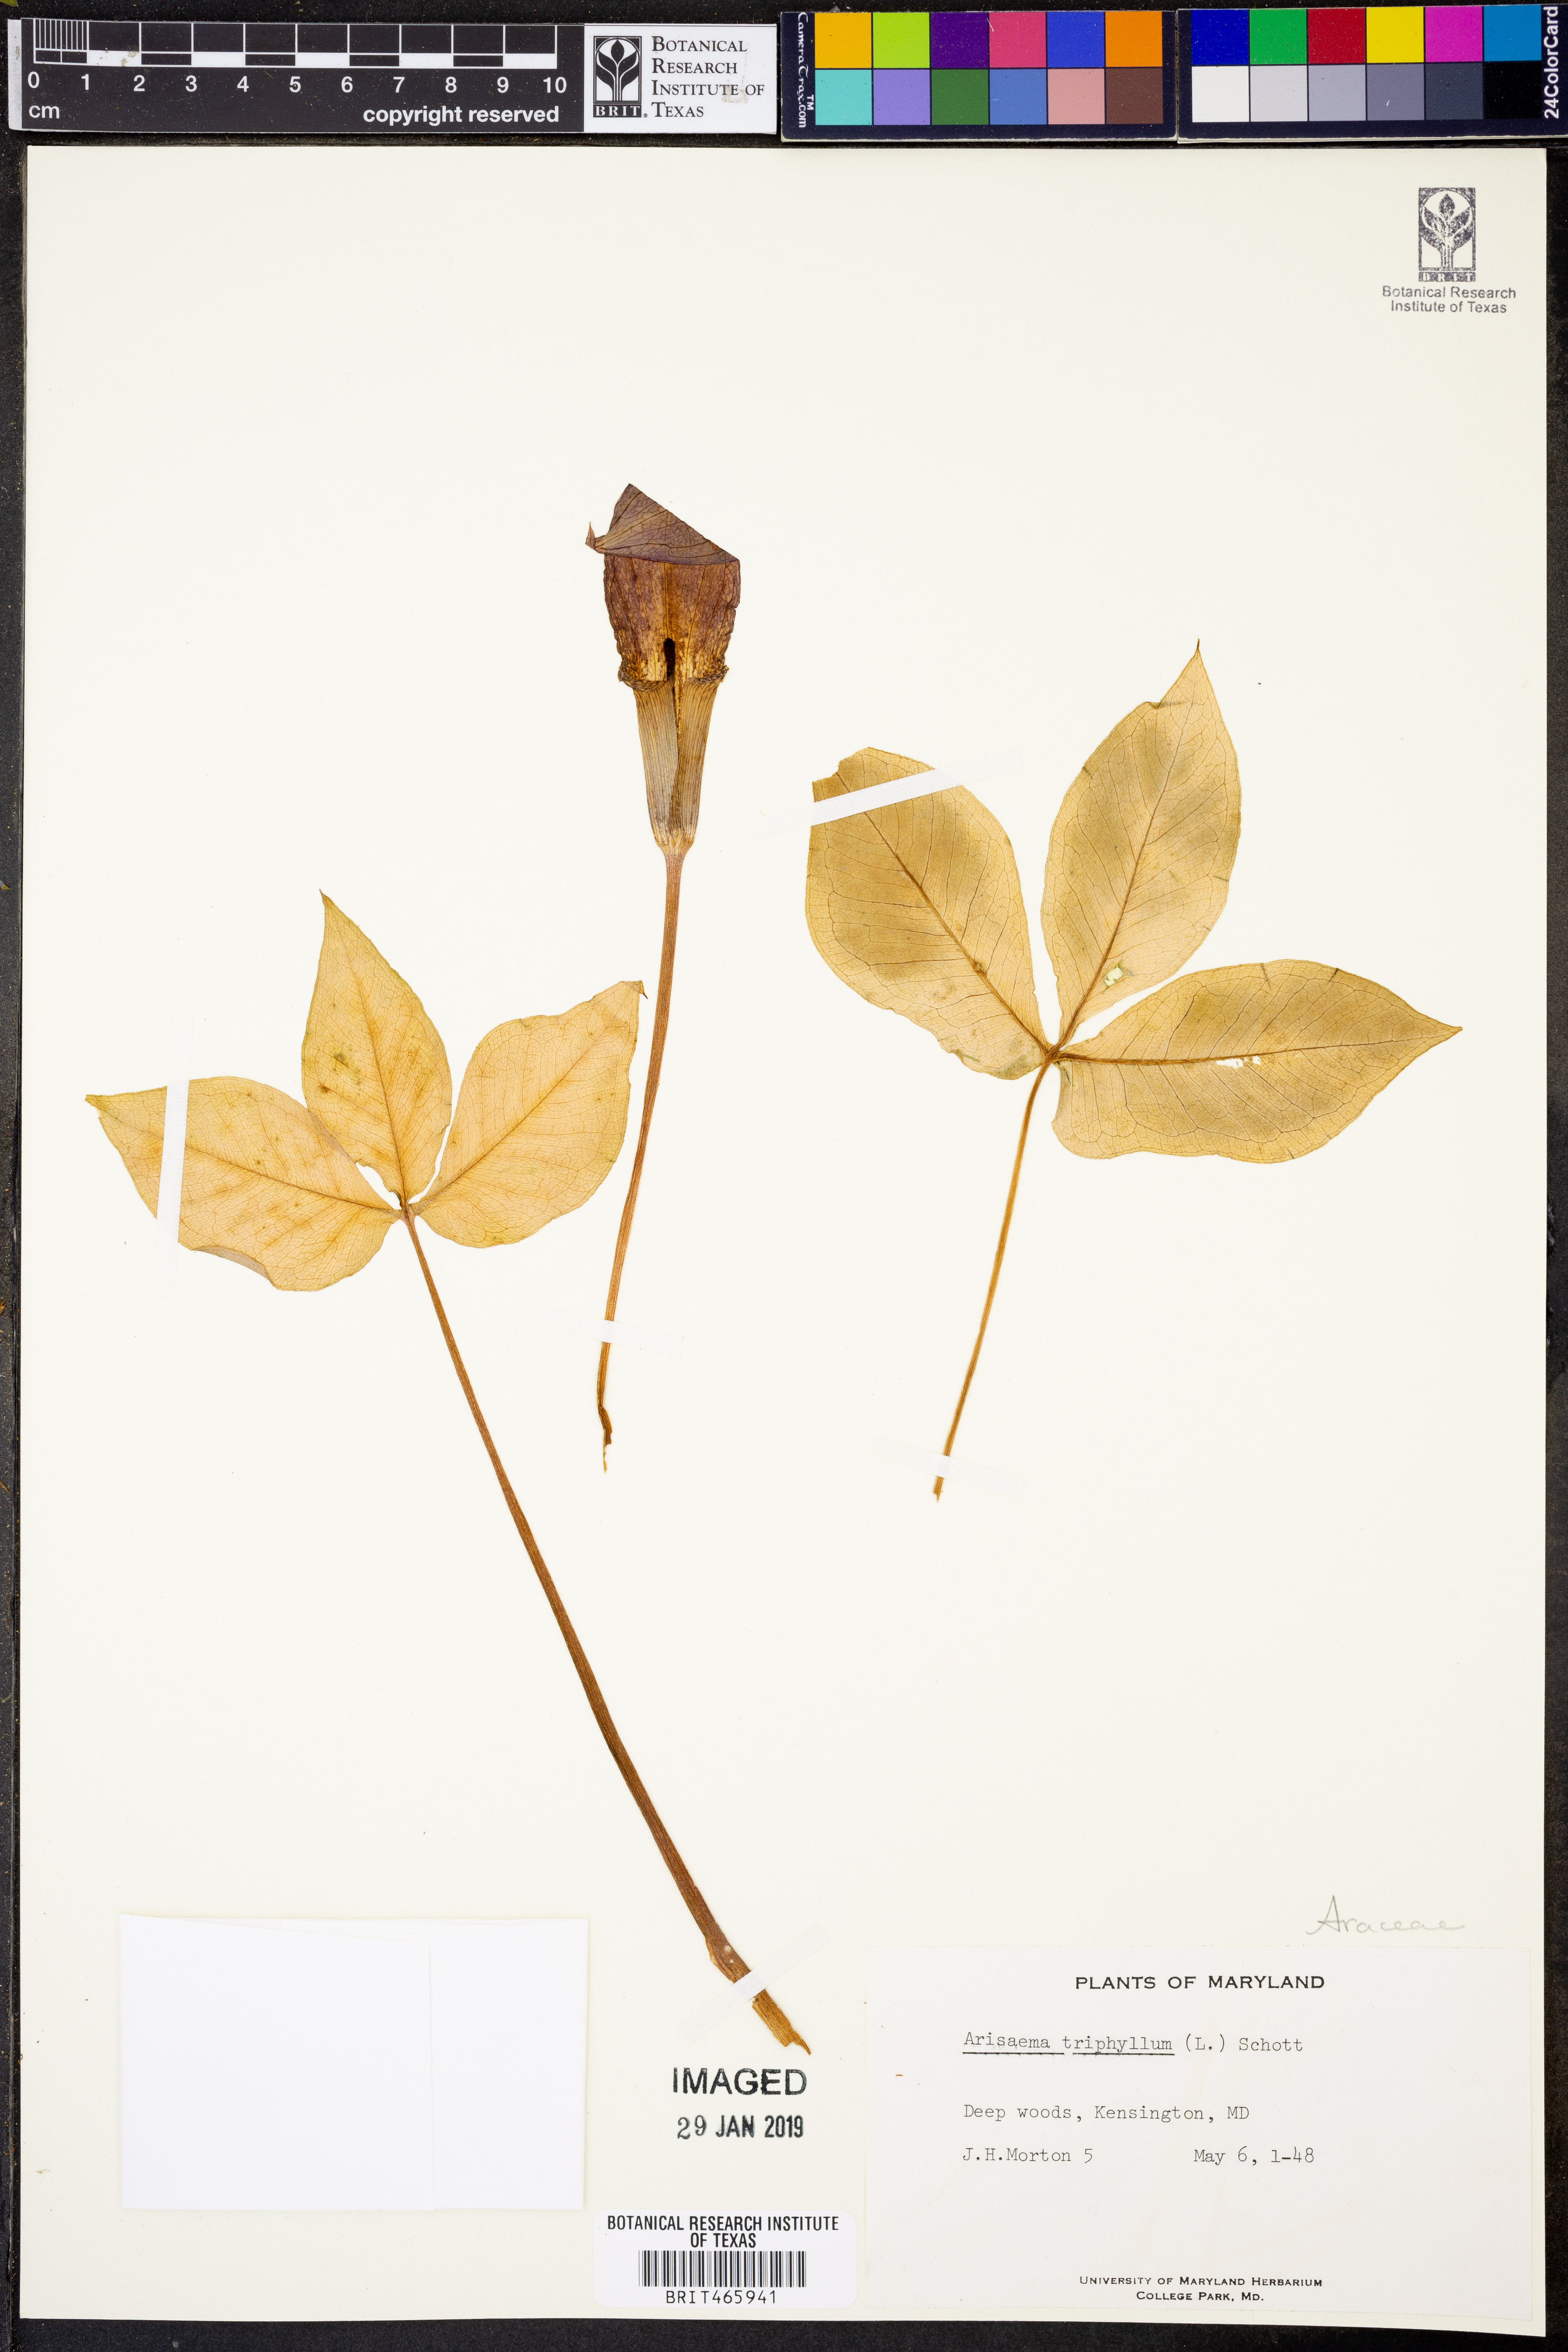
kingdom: Plantae
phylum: Tracheophyta
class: Liliopsida
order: Alismatales
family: Araceae
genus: Arisaema
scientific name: Arisaema triphyllum
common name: Jack-in-the-pulpit
